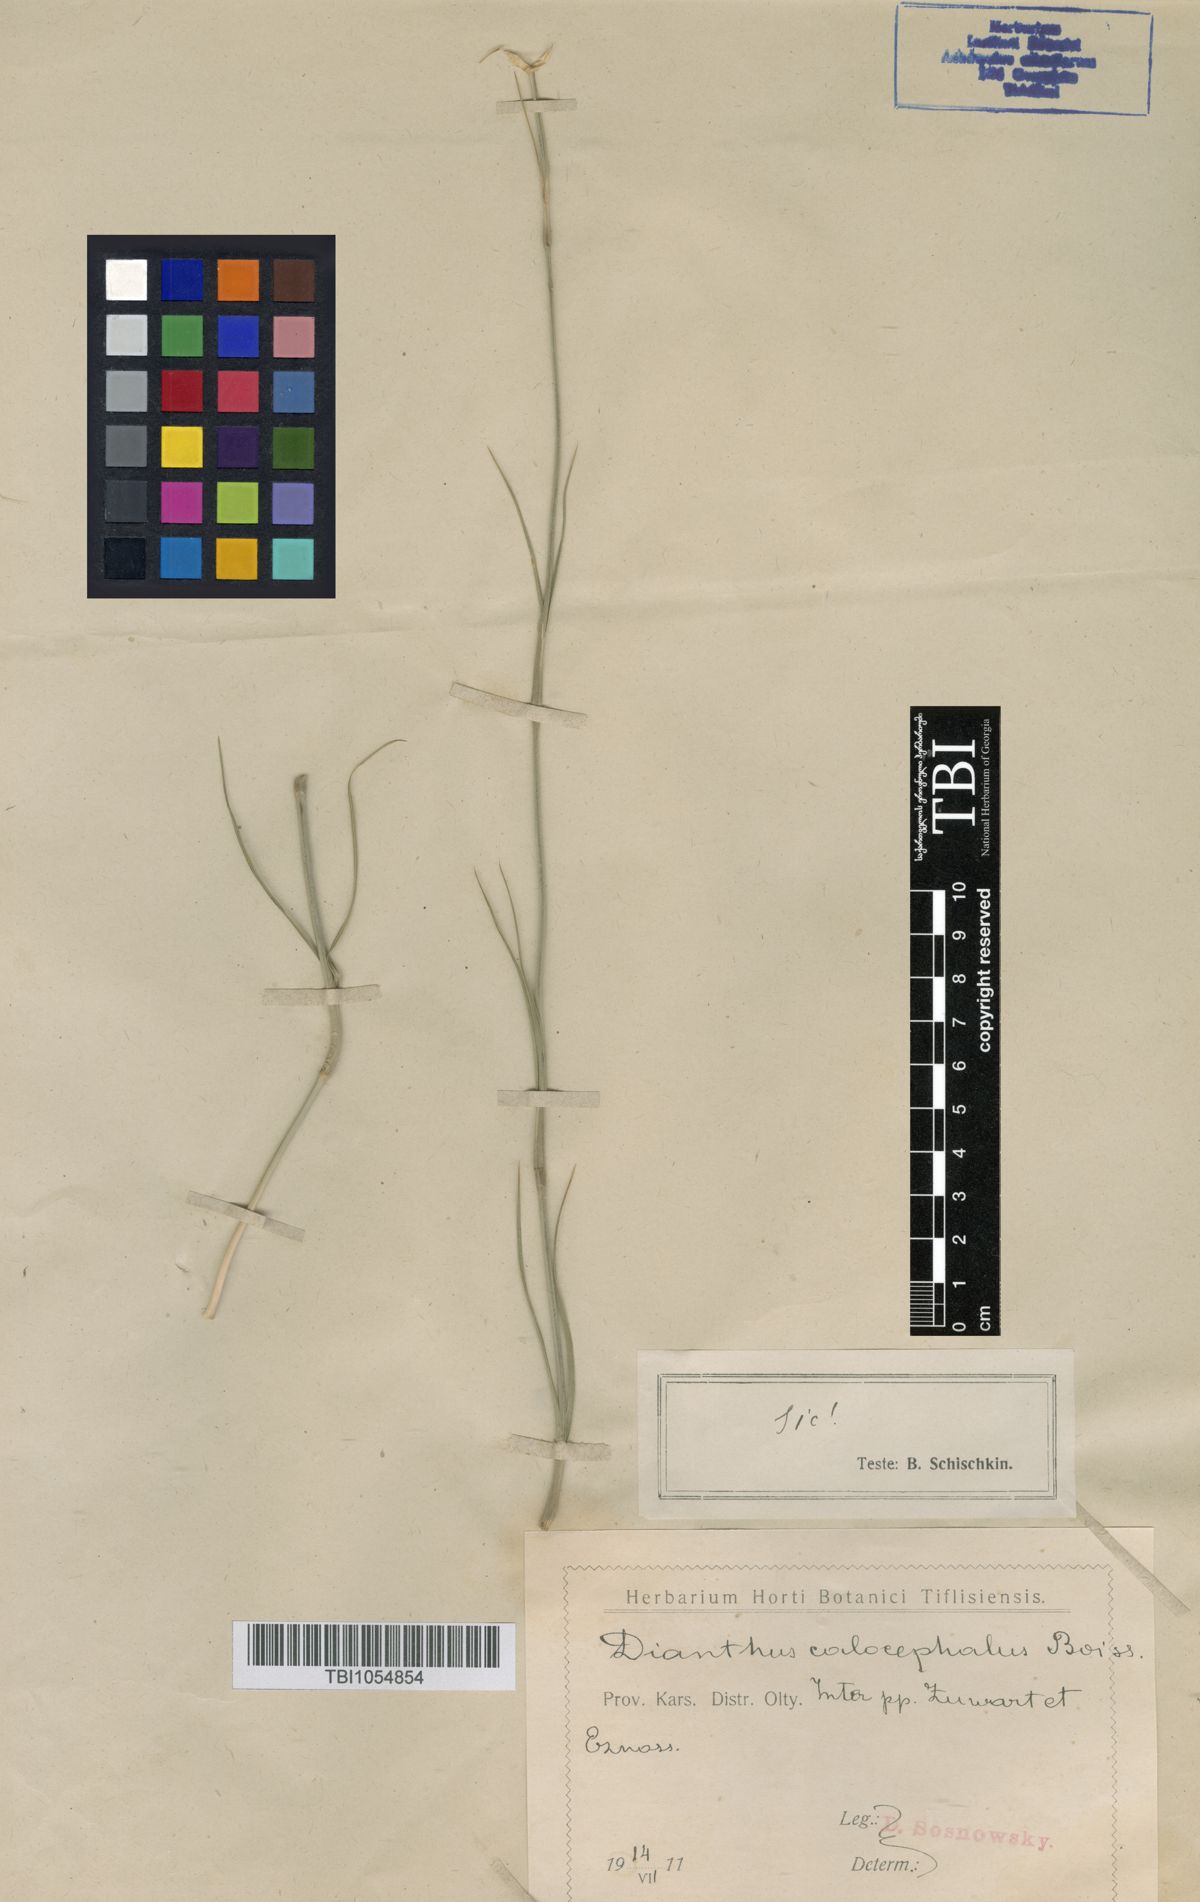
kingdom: Plantae
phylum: Tracheophyta
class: Magnoliopsida
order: Caryophyllales
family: Caryophyllaceae
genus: Dianthus
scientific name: Dianthus cruentus
